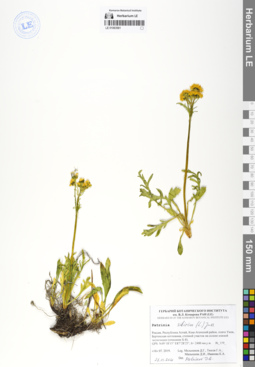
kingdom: Plantae
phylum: Tracheophyta
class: Magnoliopsida
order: Dipsacales
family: Caprifoliaceae
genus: Patrinia
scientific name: Patrinia sibirica
